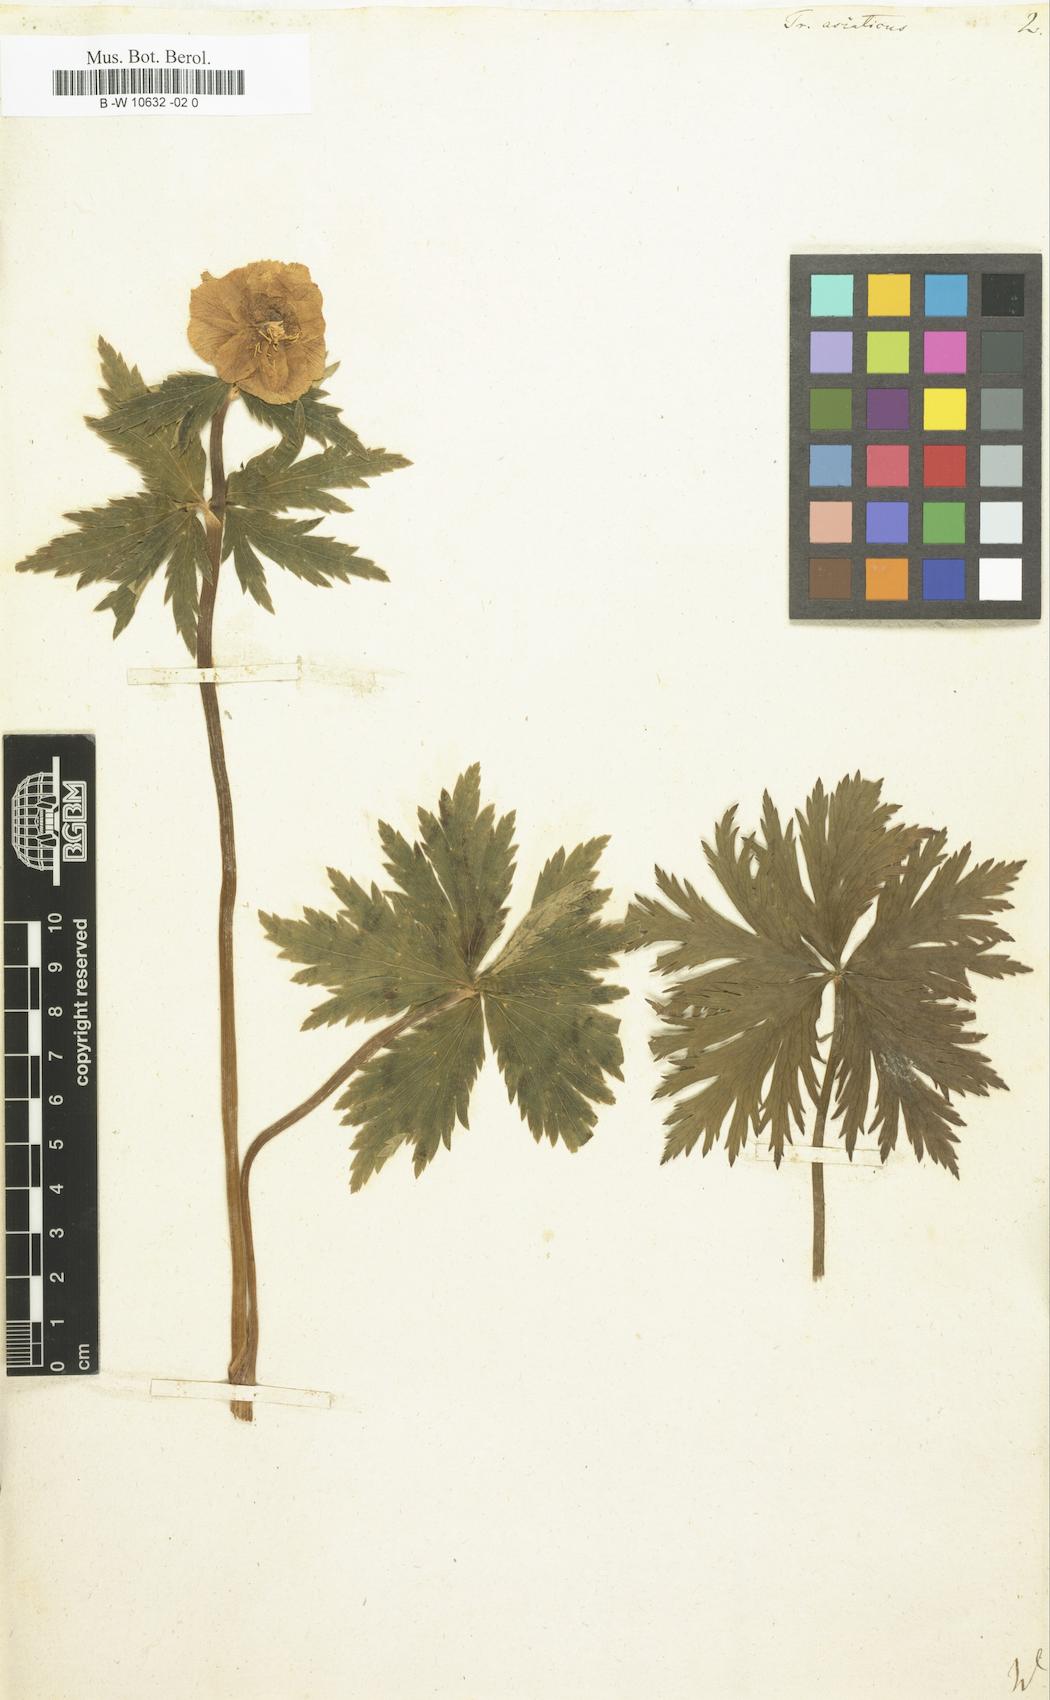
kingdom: Plantae
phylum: Tracheophyta
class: Magnoliopsida
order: Ranunculales
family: Ranunculaceae
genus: Trollius
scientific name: Trollius asiaticus
